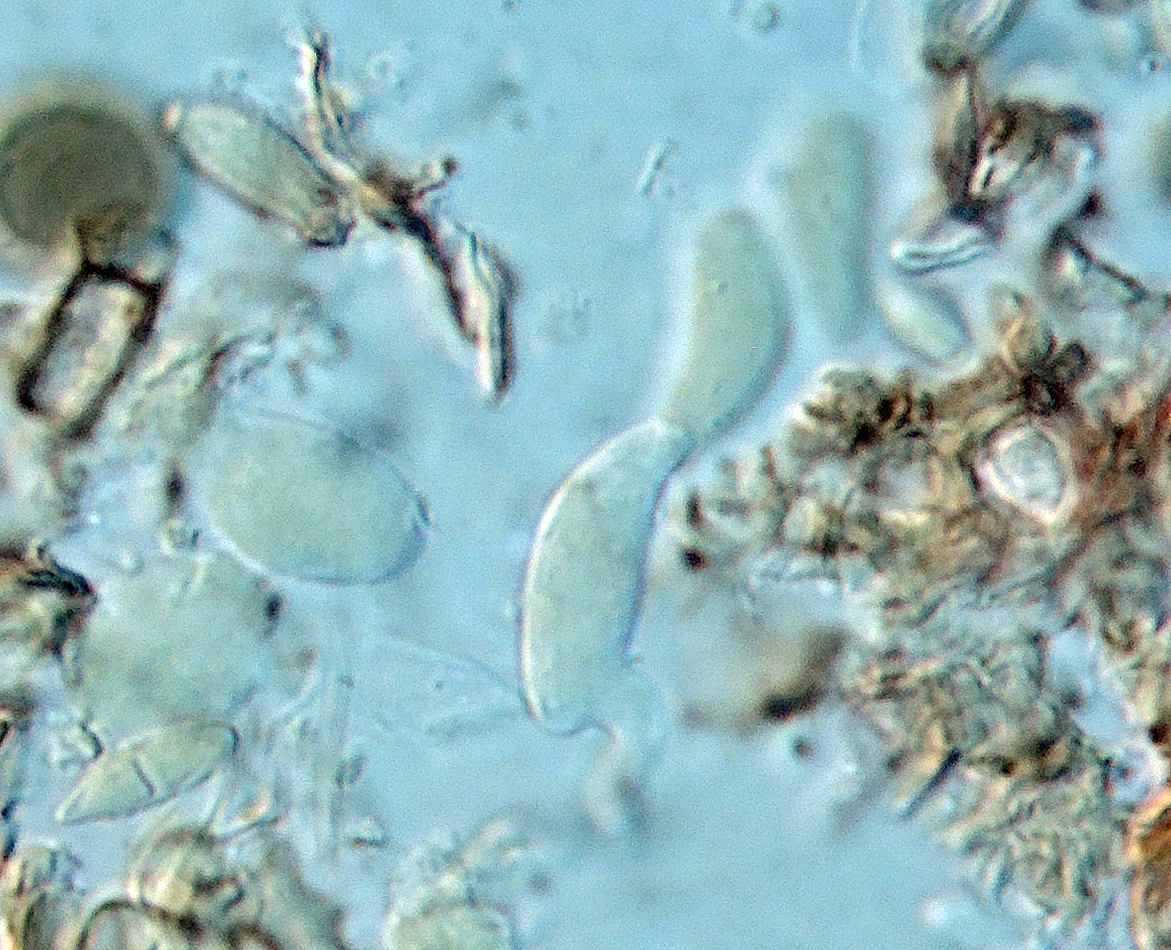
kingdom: Fungi
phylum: Basidiomycota
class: Agaricomycetes
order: Auriculariales
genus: Endoperplexa
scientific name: Endoperplexa enodulosa
